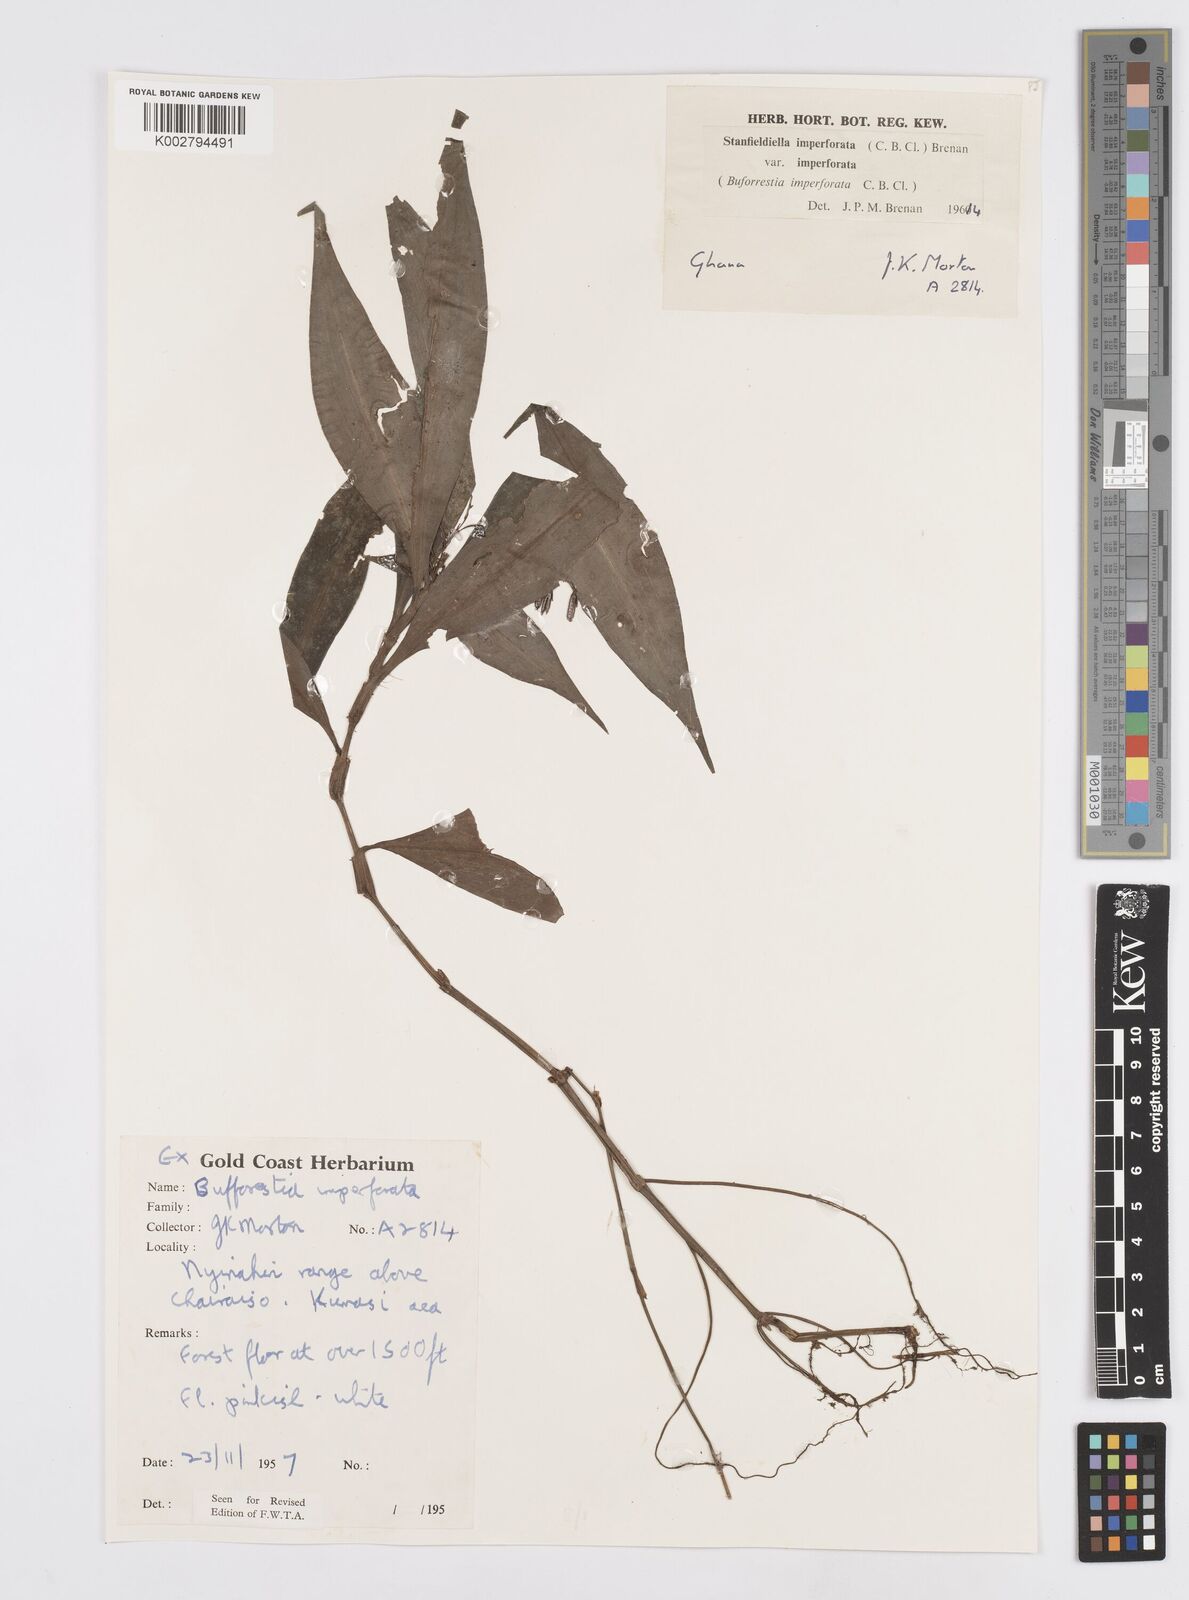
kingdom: Plantae
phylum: Tracheophyta
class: Liliopsida
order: Commelinales
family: Commelinaceae
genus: Stanfieldiella
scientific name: Stanfieldiella imperforata
